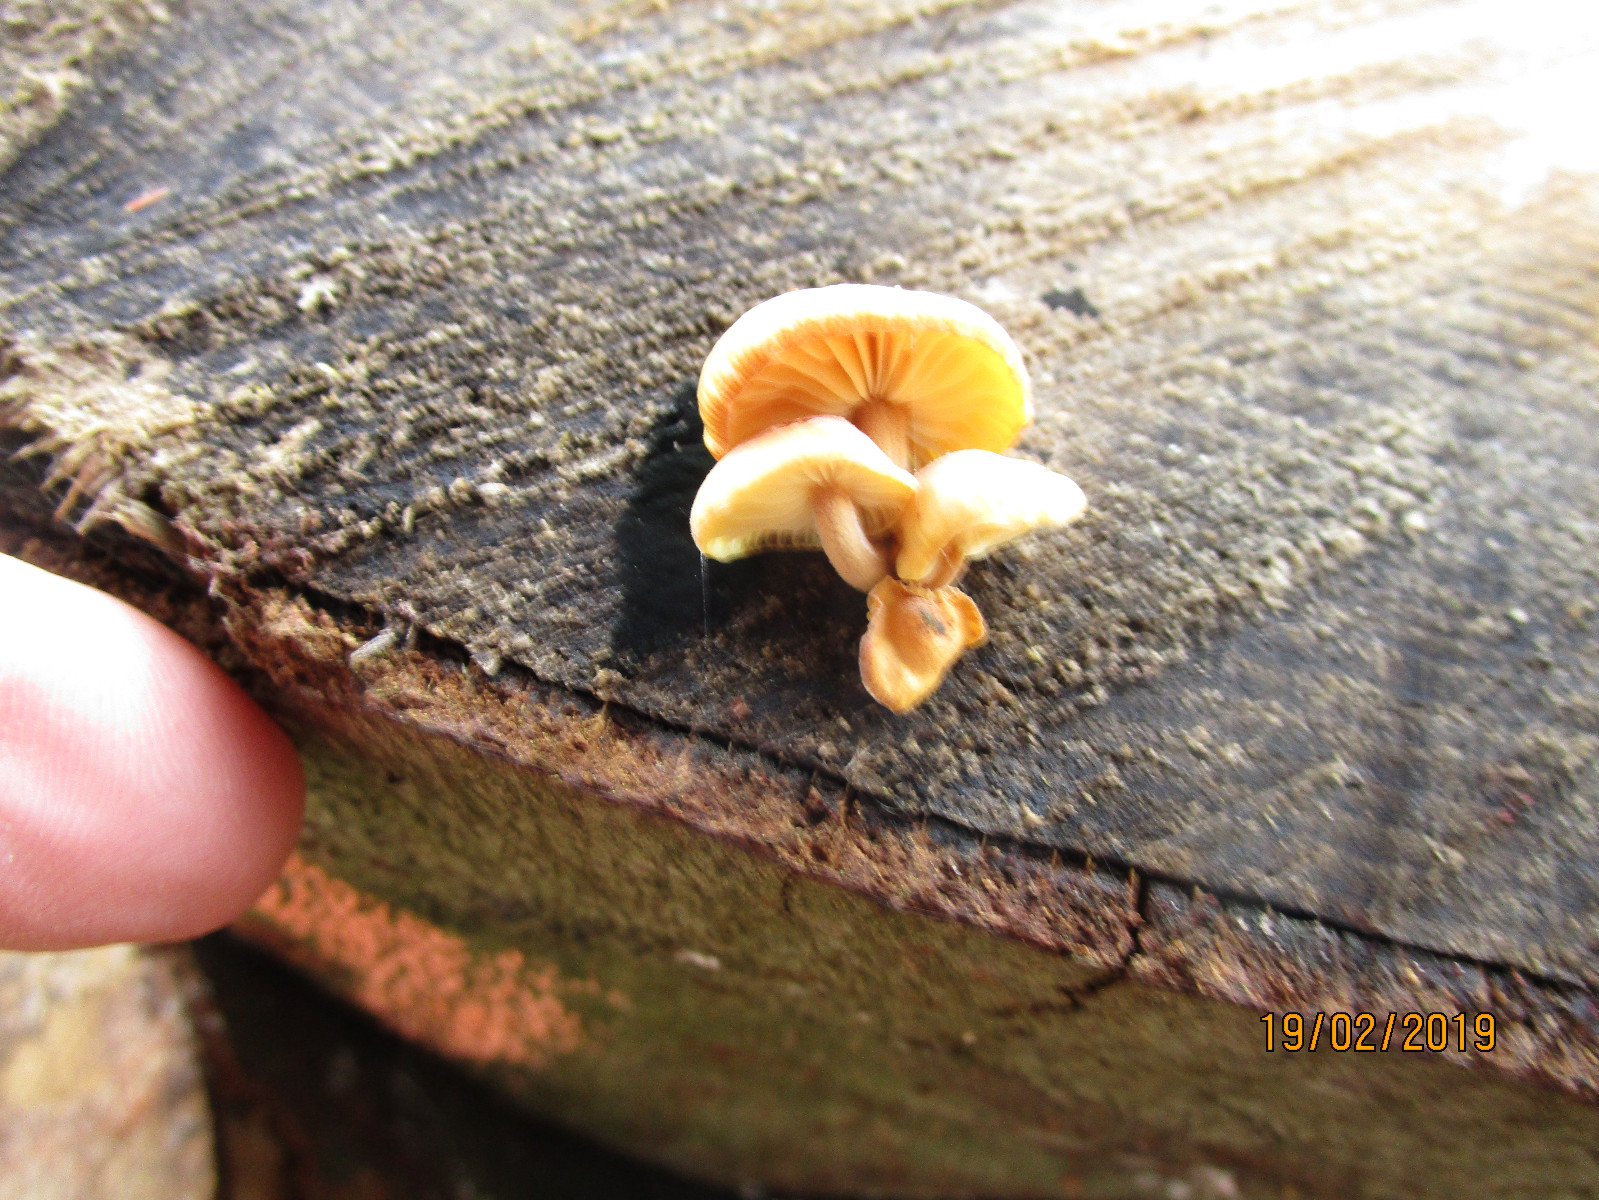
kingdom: Fungi
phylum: Basidiomycota
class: Agaricomycetes
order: Agaricales
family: Physalacriaceae
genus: Flammulina
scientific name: Flammulina velutipes
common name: gul fløjlsfod
